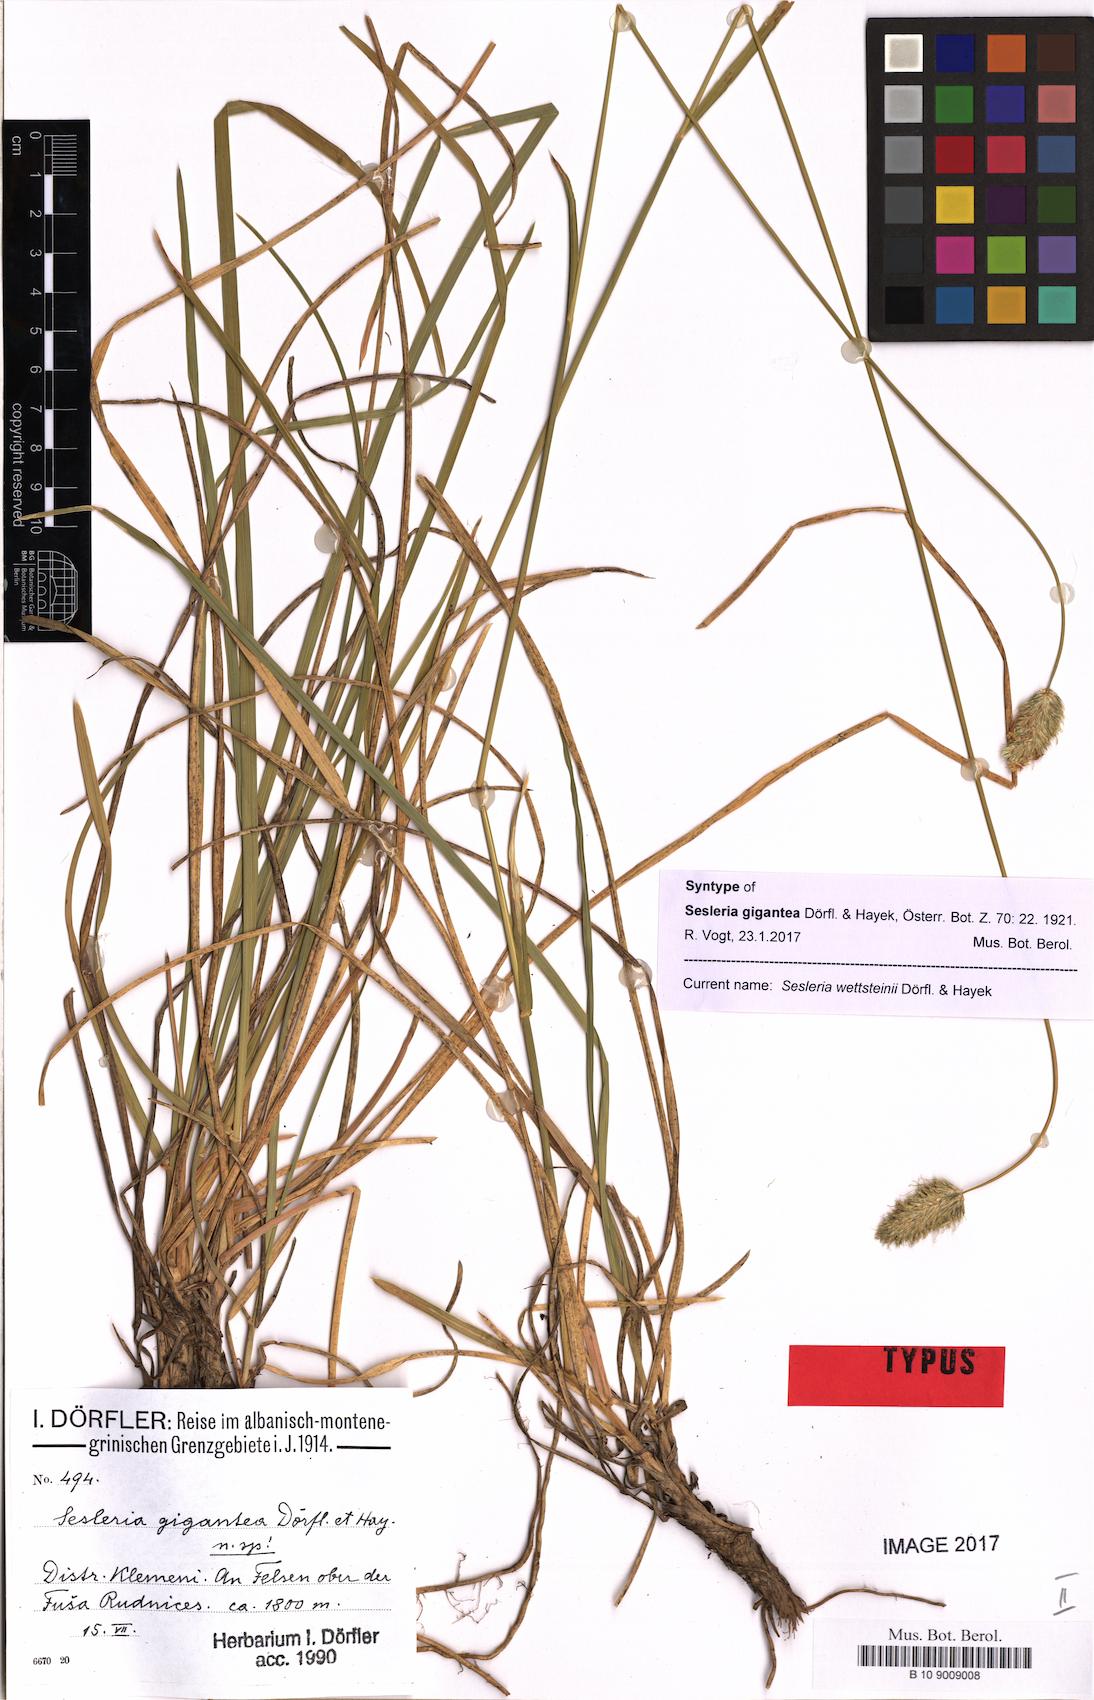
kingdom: Plantae
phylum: Tracheophyta
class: Liliopsida
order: Poales
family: Poaceae
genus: Sesleria
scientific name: Sesleria wettsteinii
